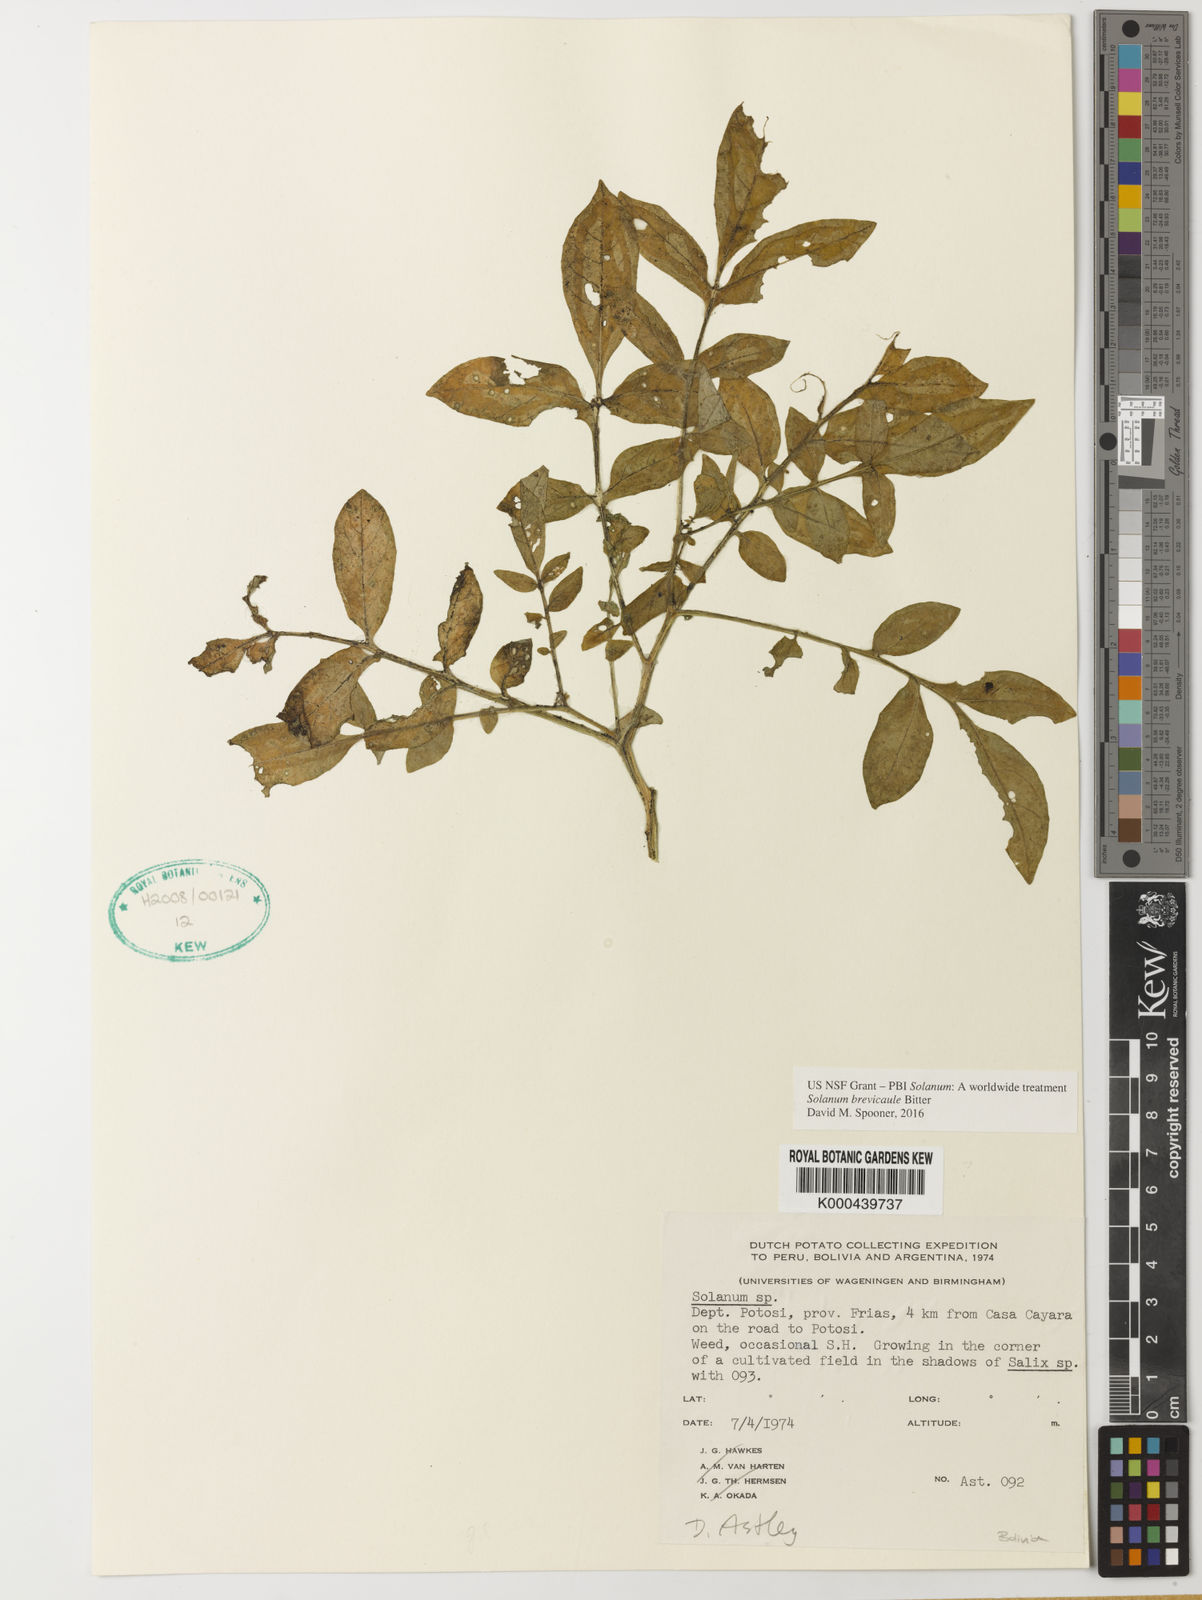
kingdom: Plantae
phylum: Tracheophyta
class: Magnoliopsida
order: Solanales
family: Solanaceae
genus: Solanum
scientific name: Solanum brevicaule
